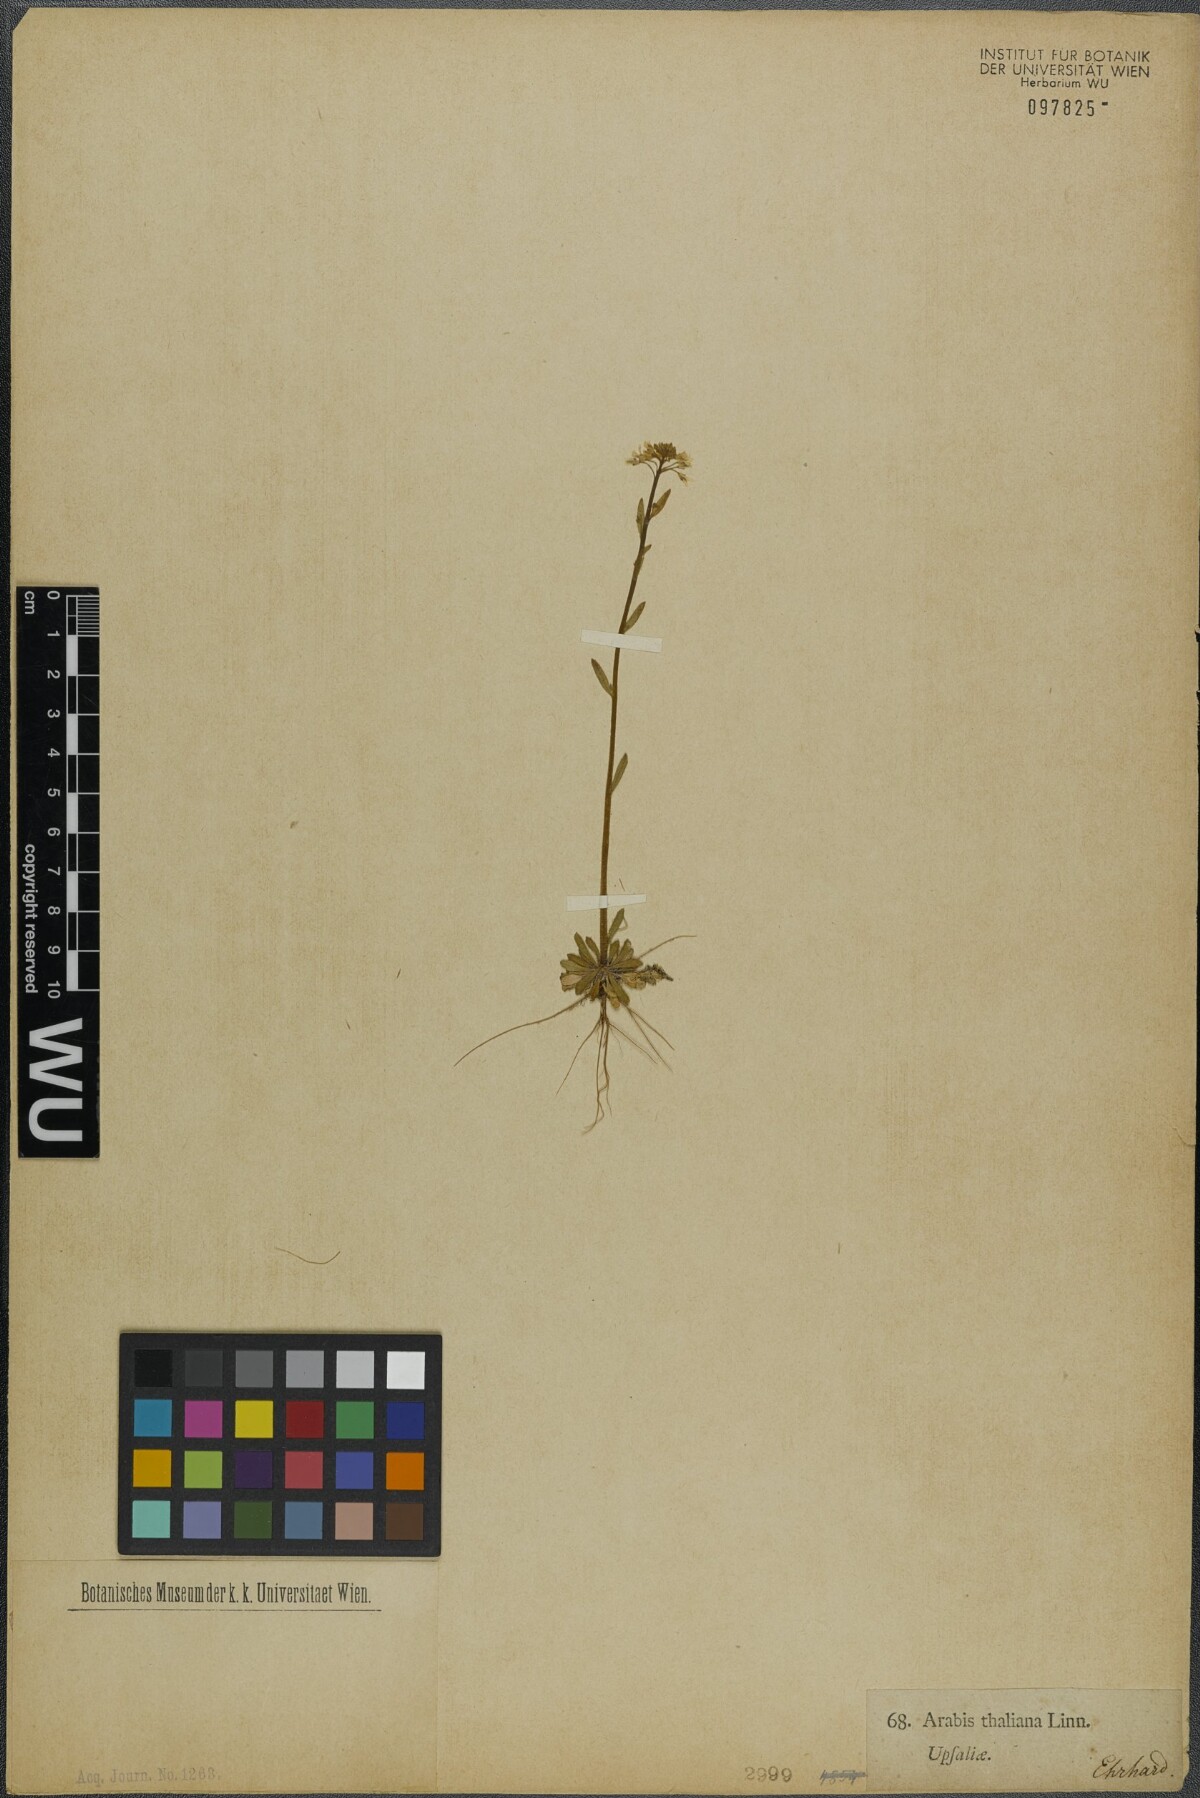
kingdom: Plantae
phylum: Tracheophyta
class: Magnoliopsida
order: Brassicales
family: Brassicaceae
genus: Arabidopsis
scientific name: Arabidopsis thaliana
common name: Thale cress
